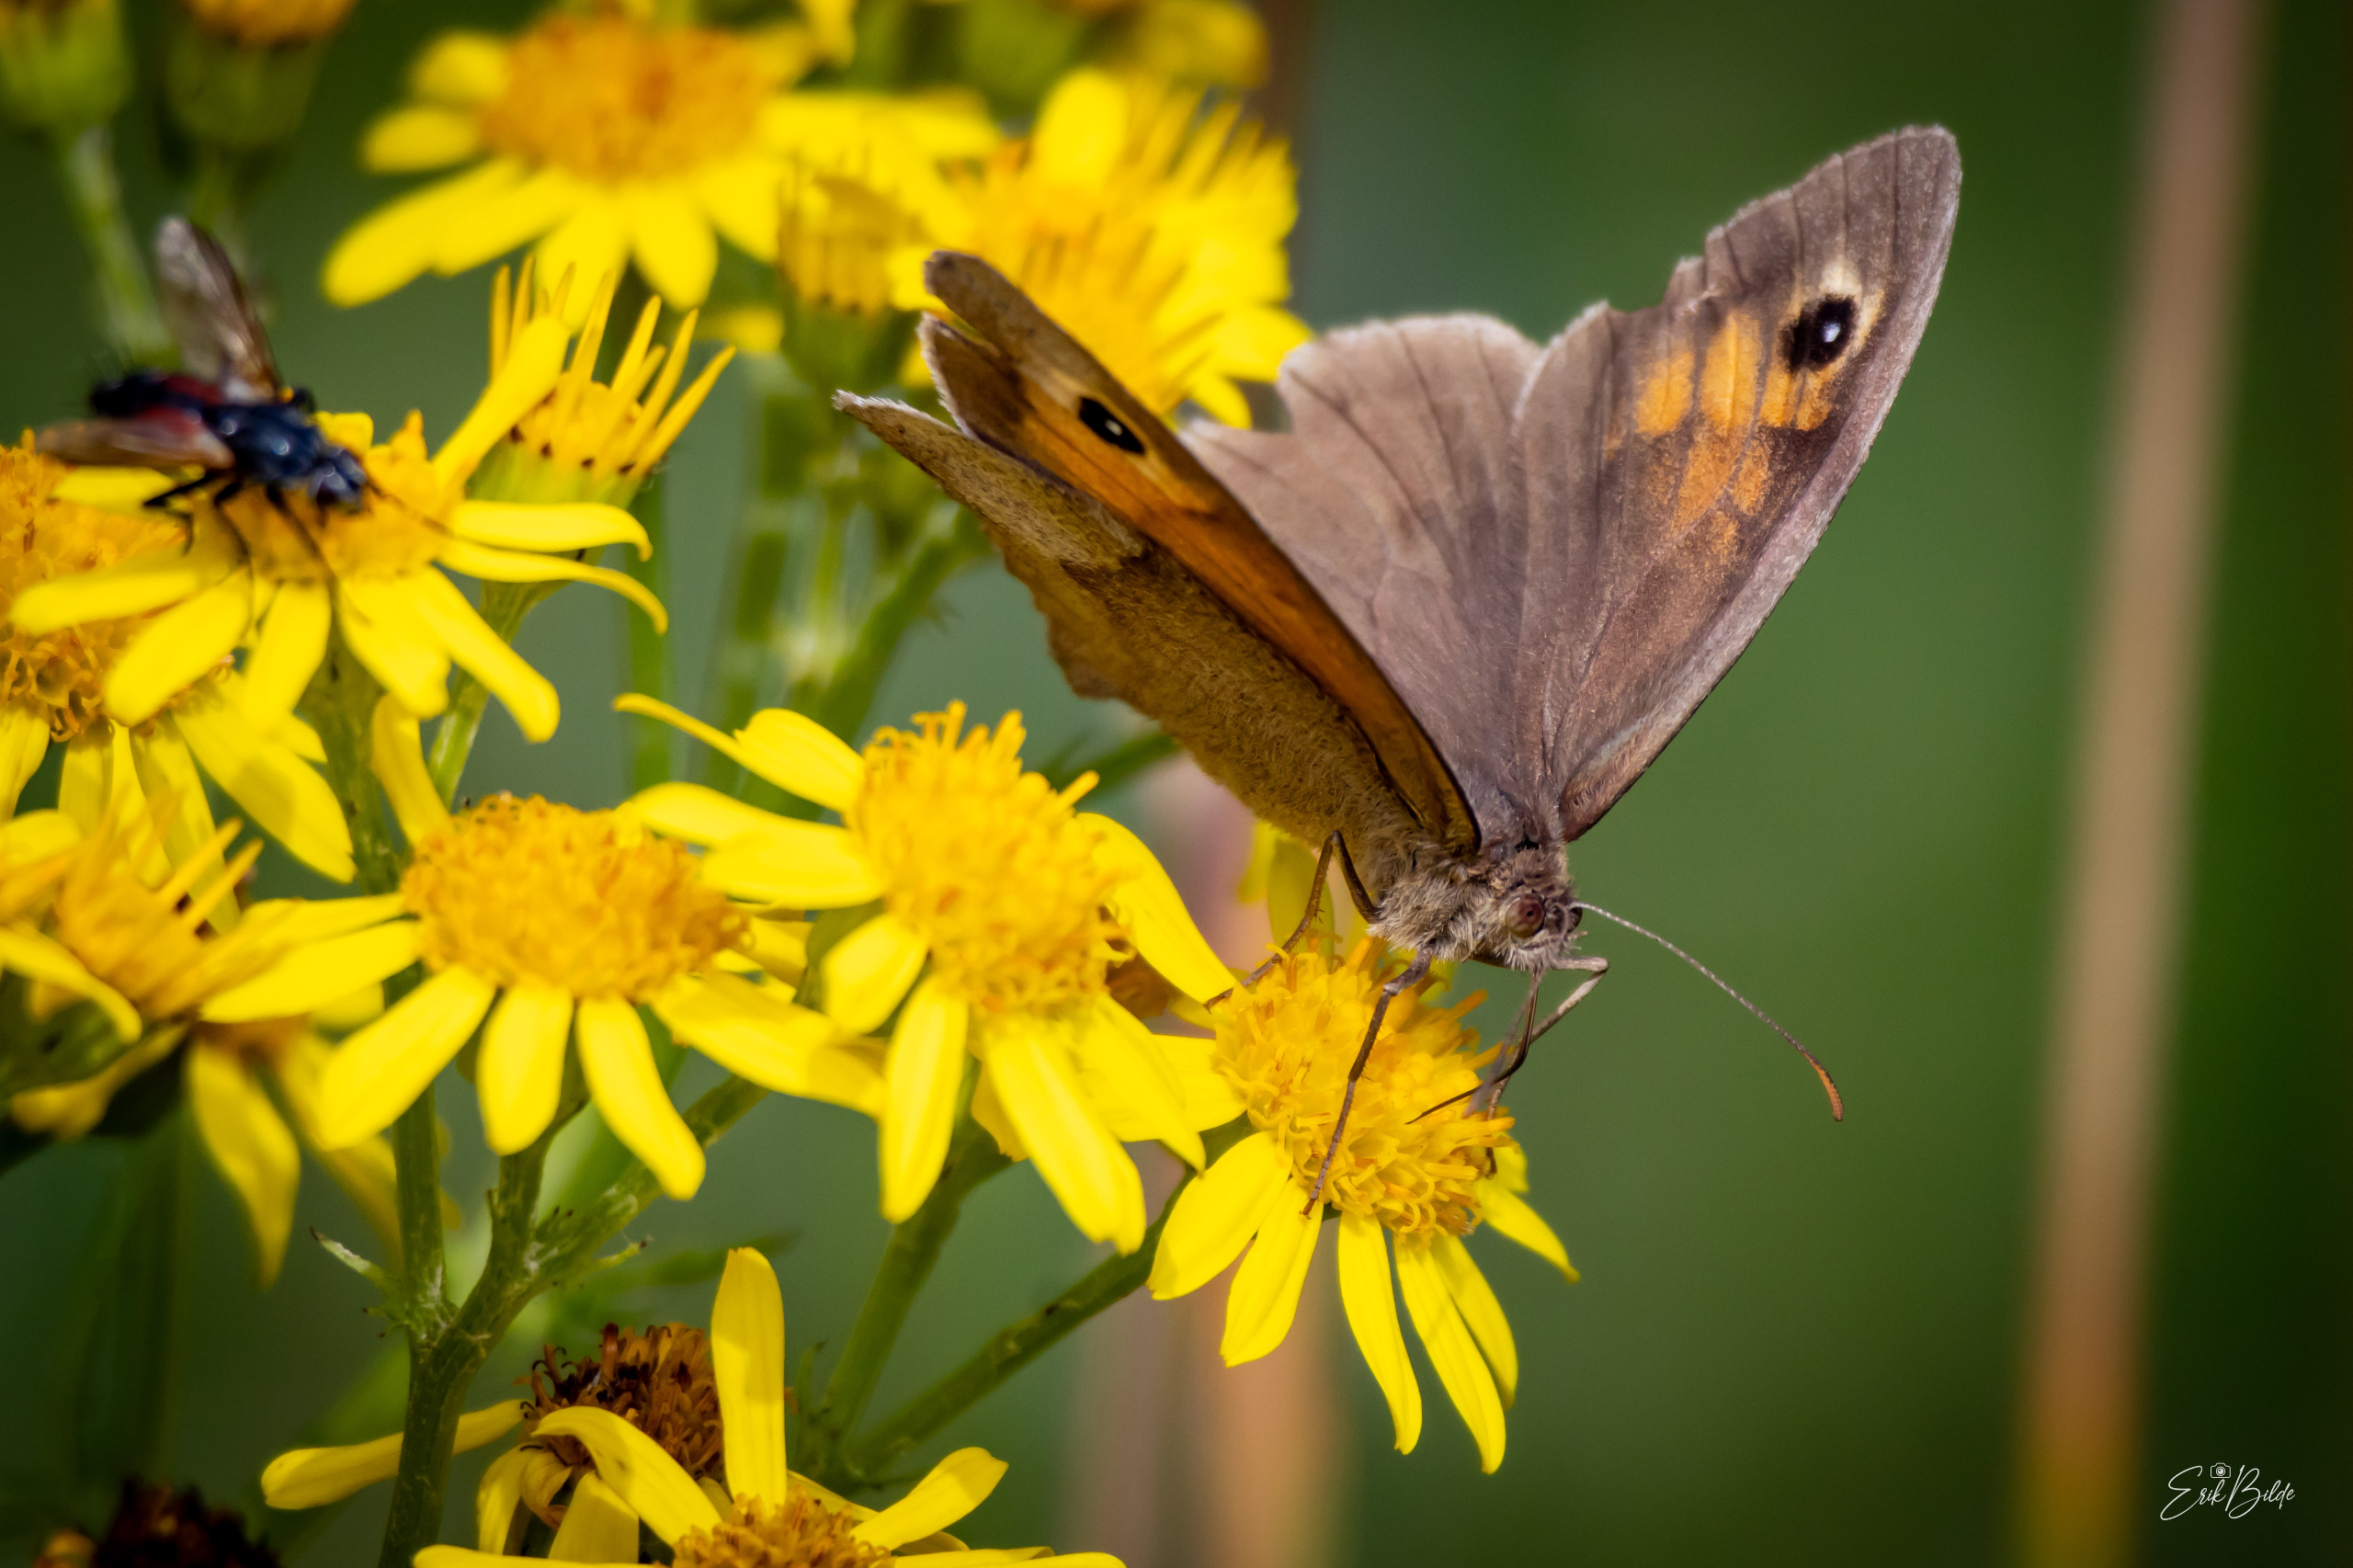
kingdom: Animalia
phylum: Arthropoda
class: Insecta
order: Lepidoptera
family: Nymphalidae
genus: Maniola
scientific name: Maniola jurtina
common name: Græsrandøje
